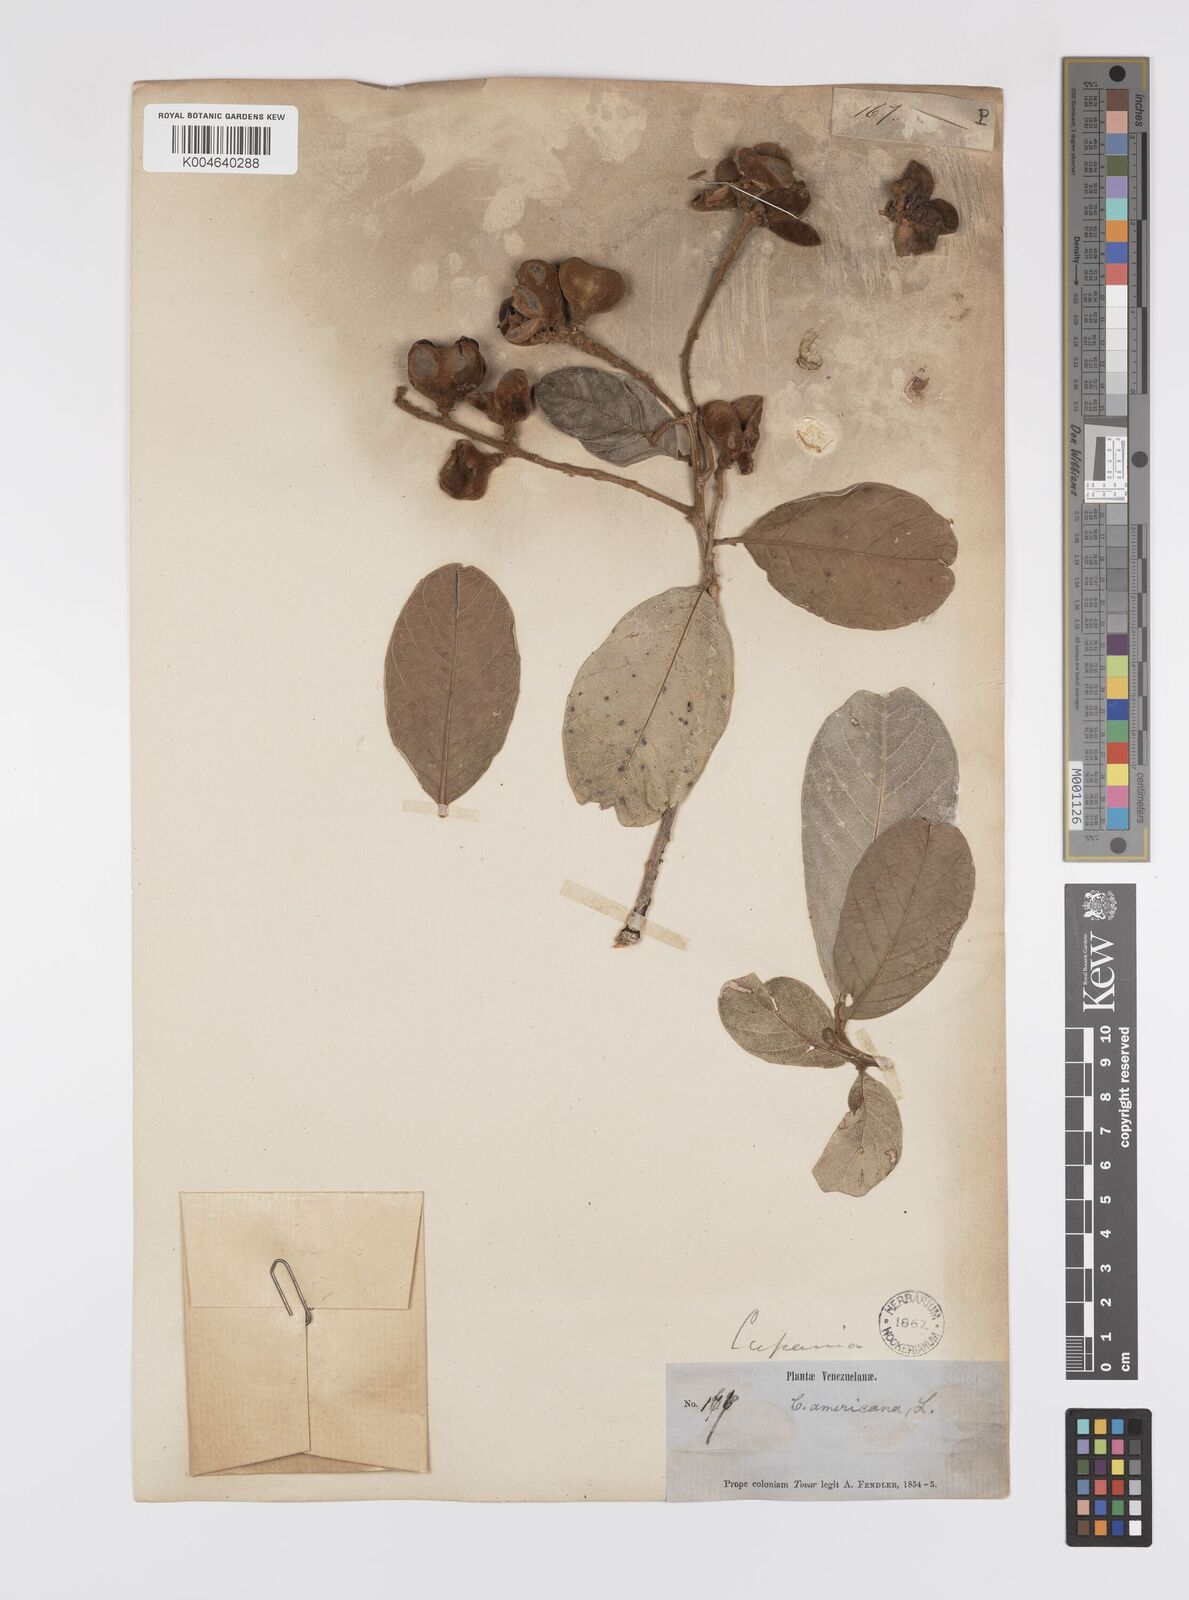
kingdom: Plantae
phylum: Tracheophyta
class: Magnoliopsida
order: Sapindales
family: Sapindaceae
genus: Cupania
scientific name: Cupania
